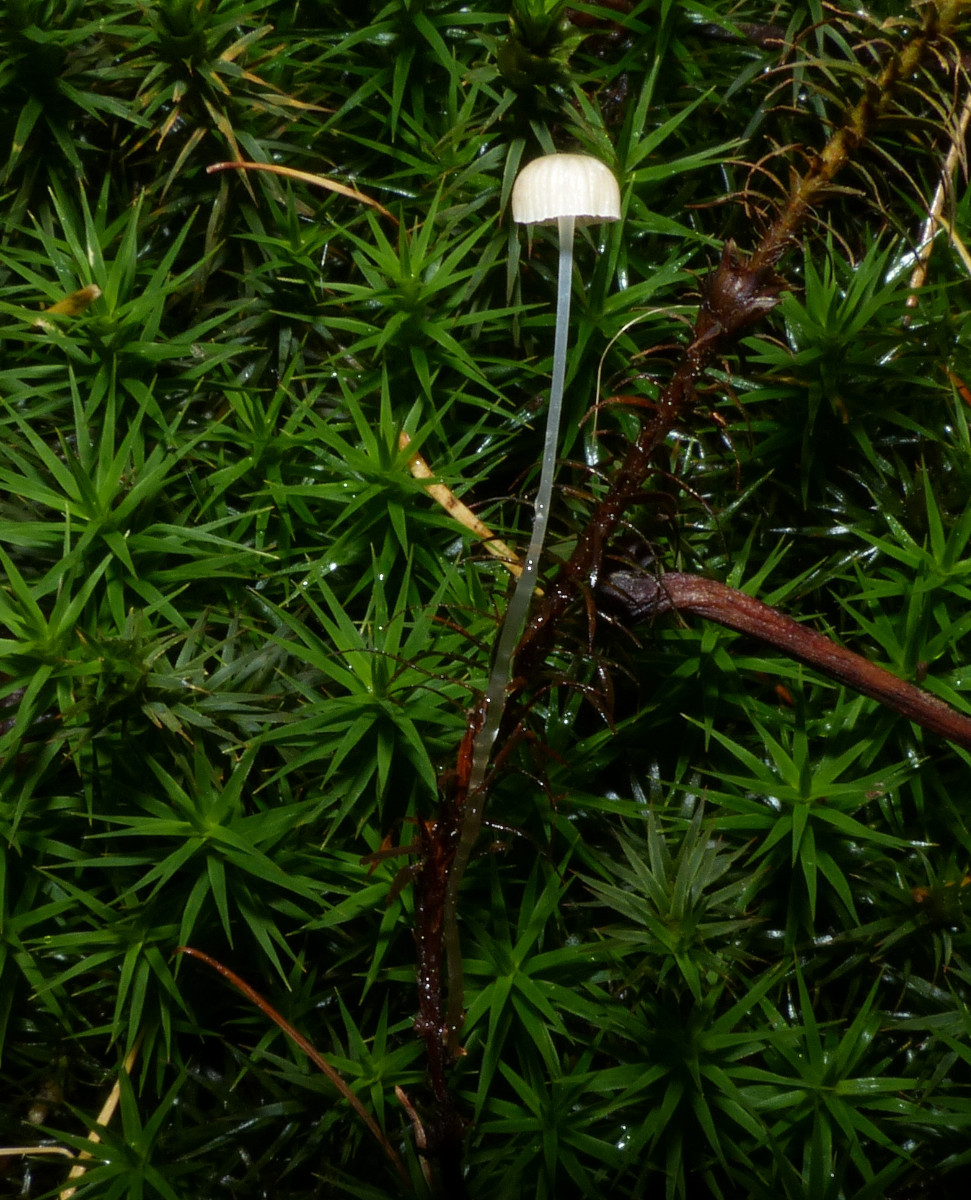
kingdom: Fungi
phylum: Basidiomycota
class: Agaricomycetes
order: Agaricales
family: Mycenaceae
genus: Roridomyces
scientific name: Roridomyces roridus
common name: slimfod
